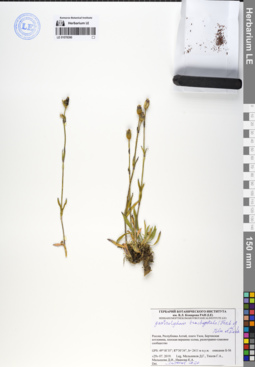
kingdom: Plantae
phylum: Tracheophyta
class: Magnoliopsida
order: Caryophyllales
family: Caryophyllaceae
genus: Silene
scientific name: Silene songarica
